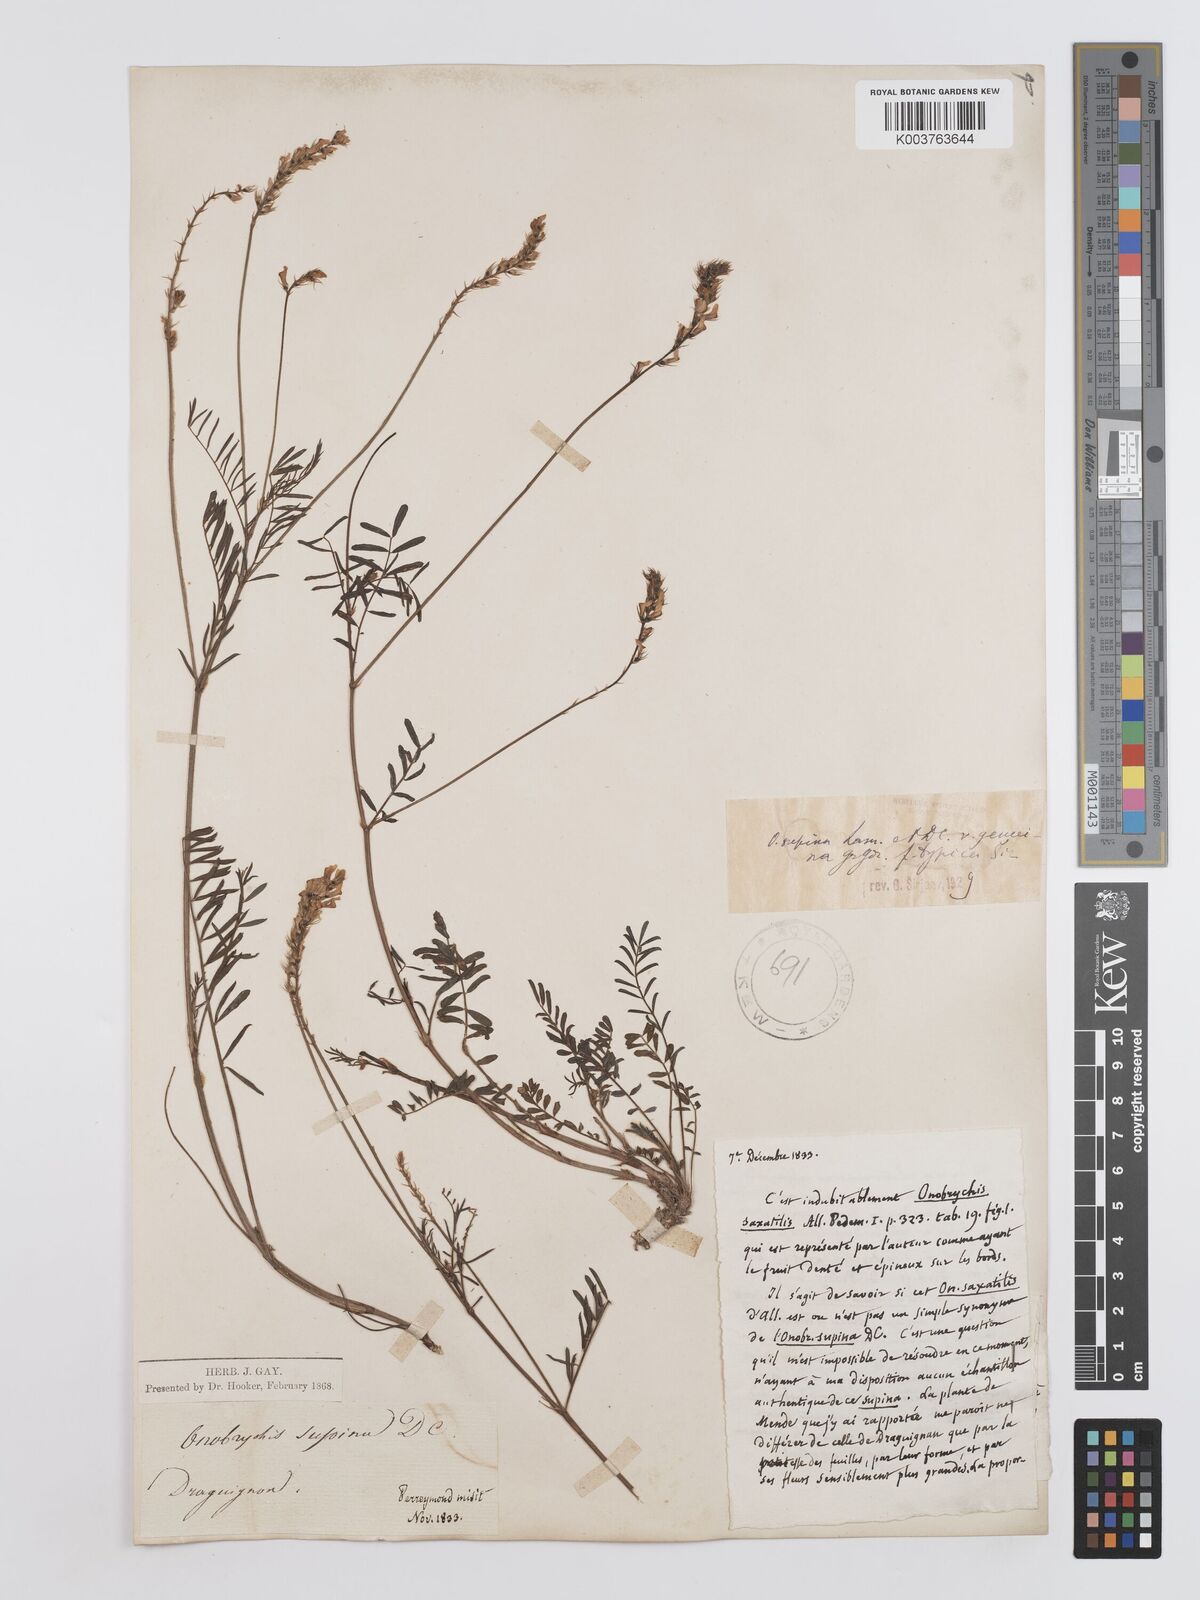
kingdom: Plantae
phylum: Tracheophyta
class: Magnoliopsida
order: Fabales
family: Fabaceae
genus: Onobrychis
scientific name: Onobrychis supina
